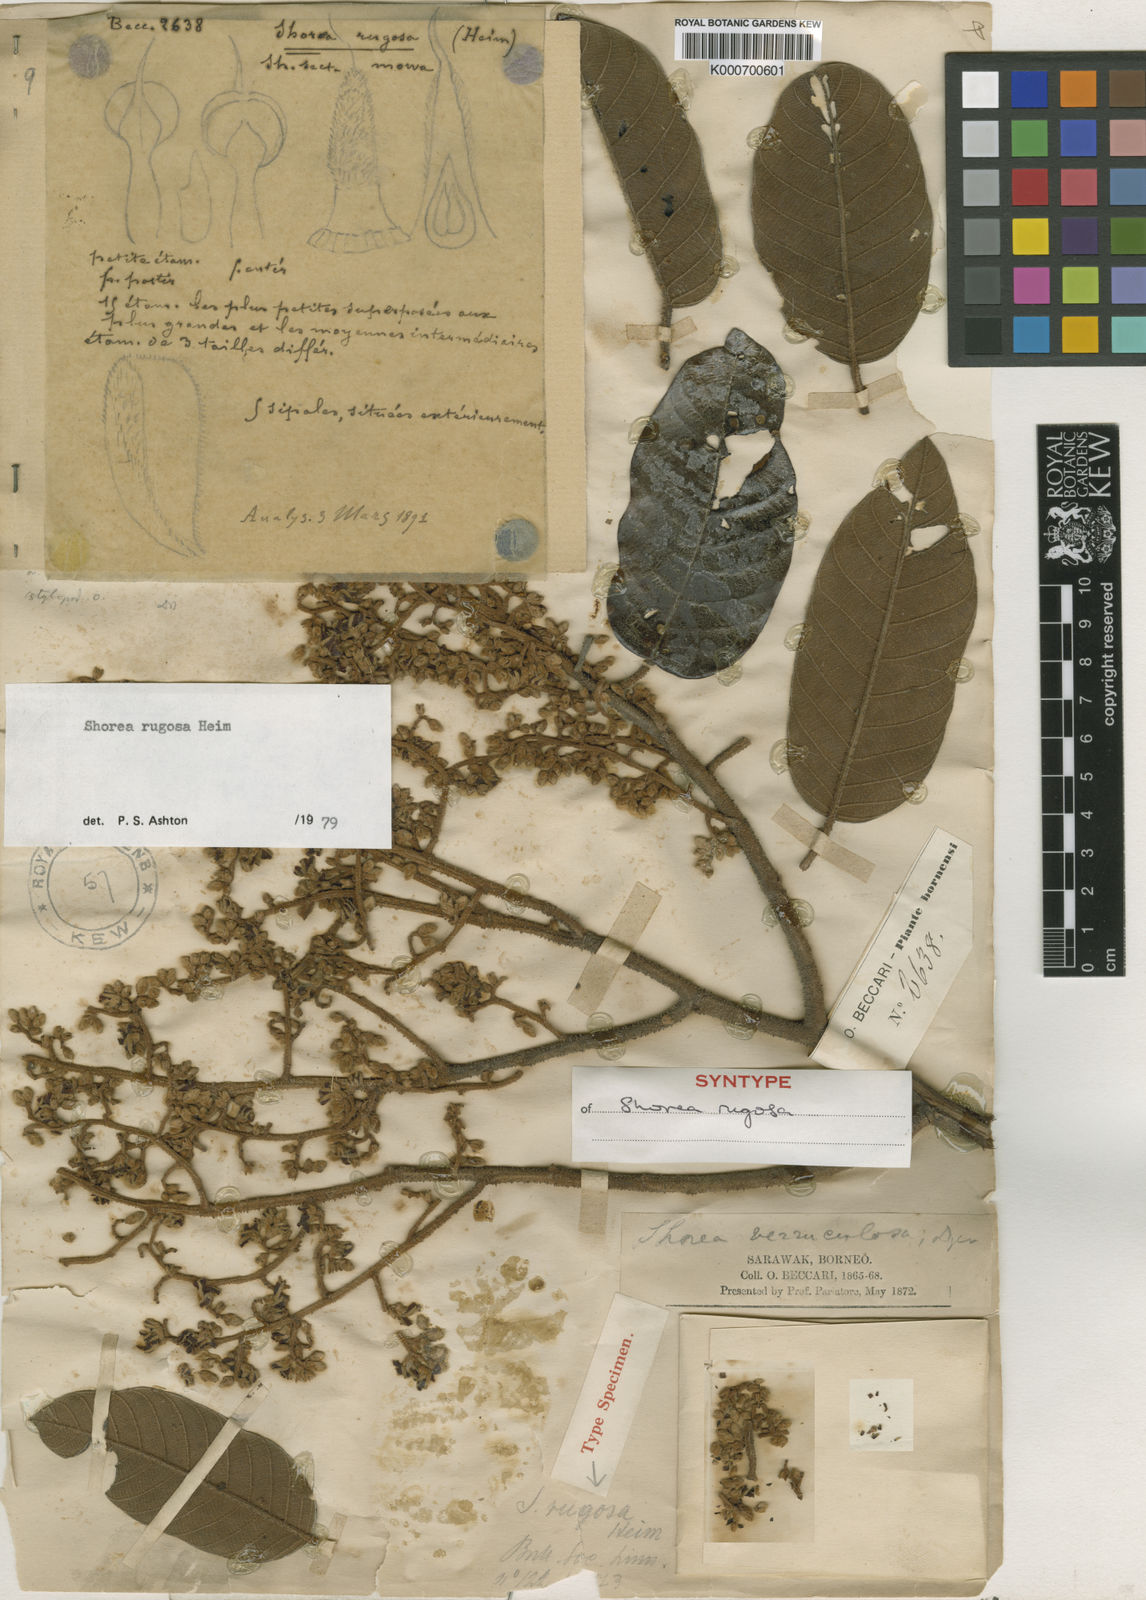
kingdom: Plantae
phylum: Tracheophyta
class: Magnoliopsida
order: Malvales
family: Dipterocarpaceae
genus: Shorea
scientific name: Shorea rugosa
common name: Dark red meranti
